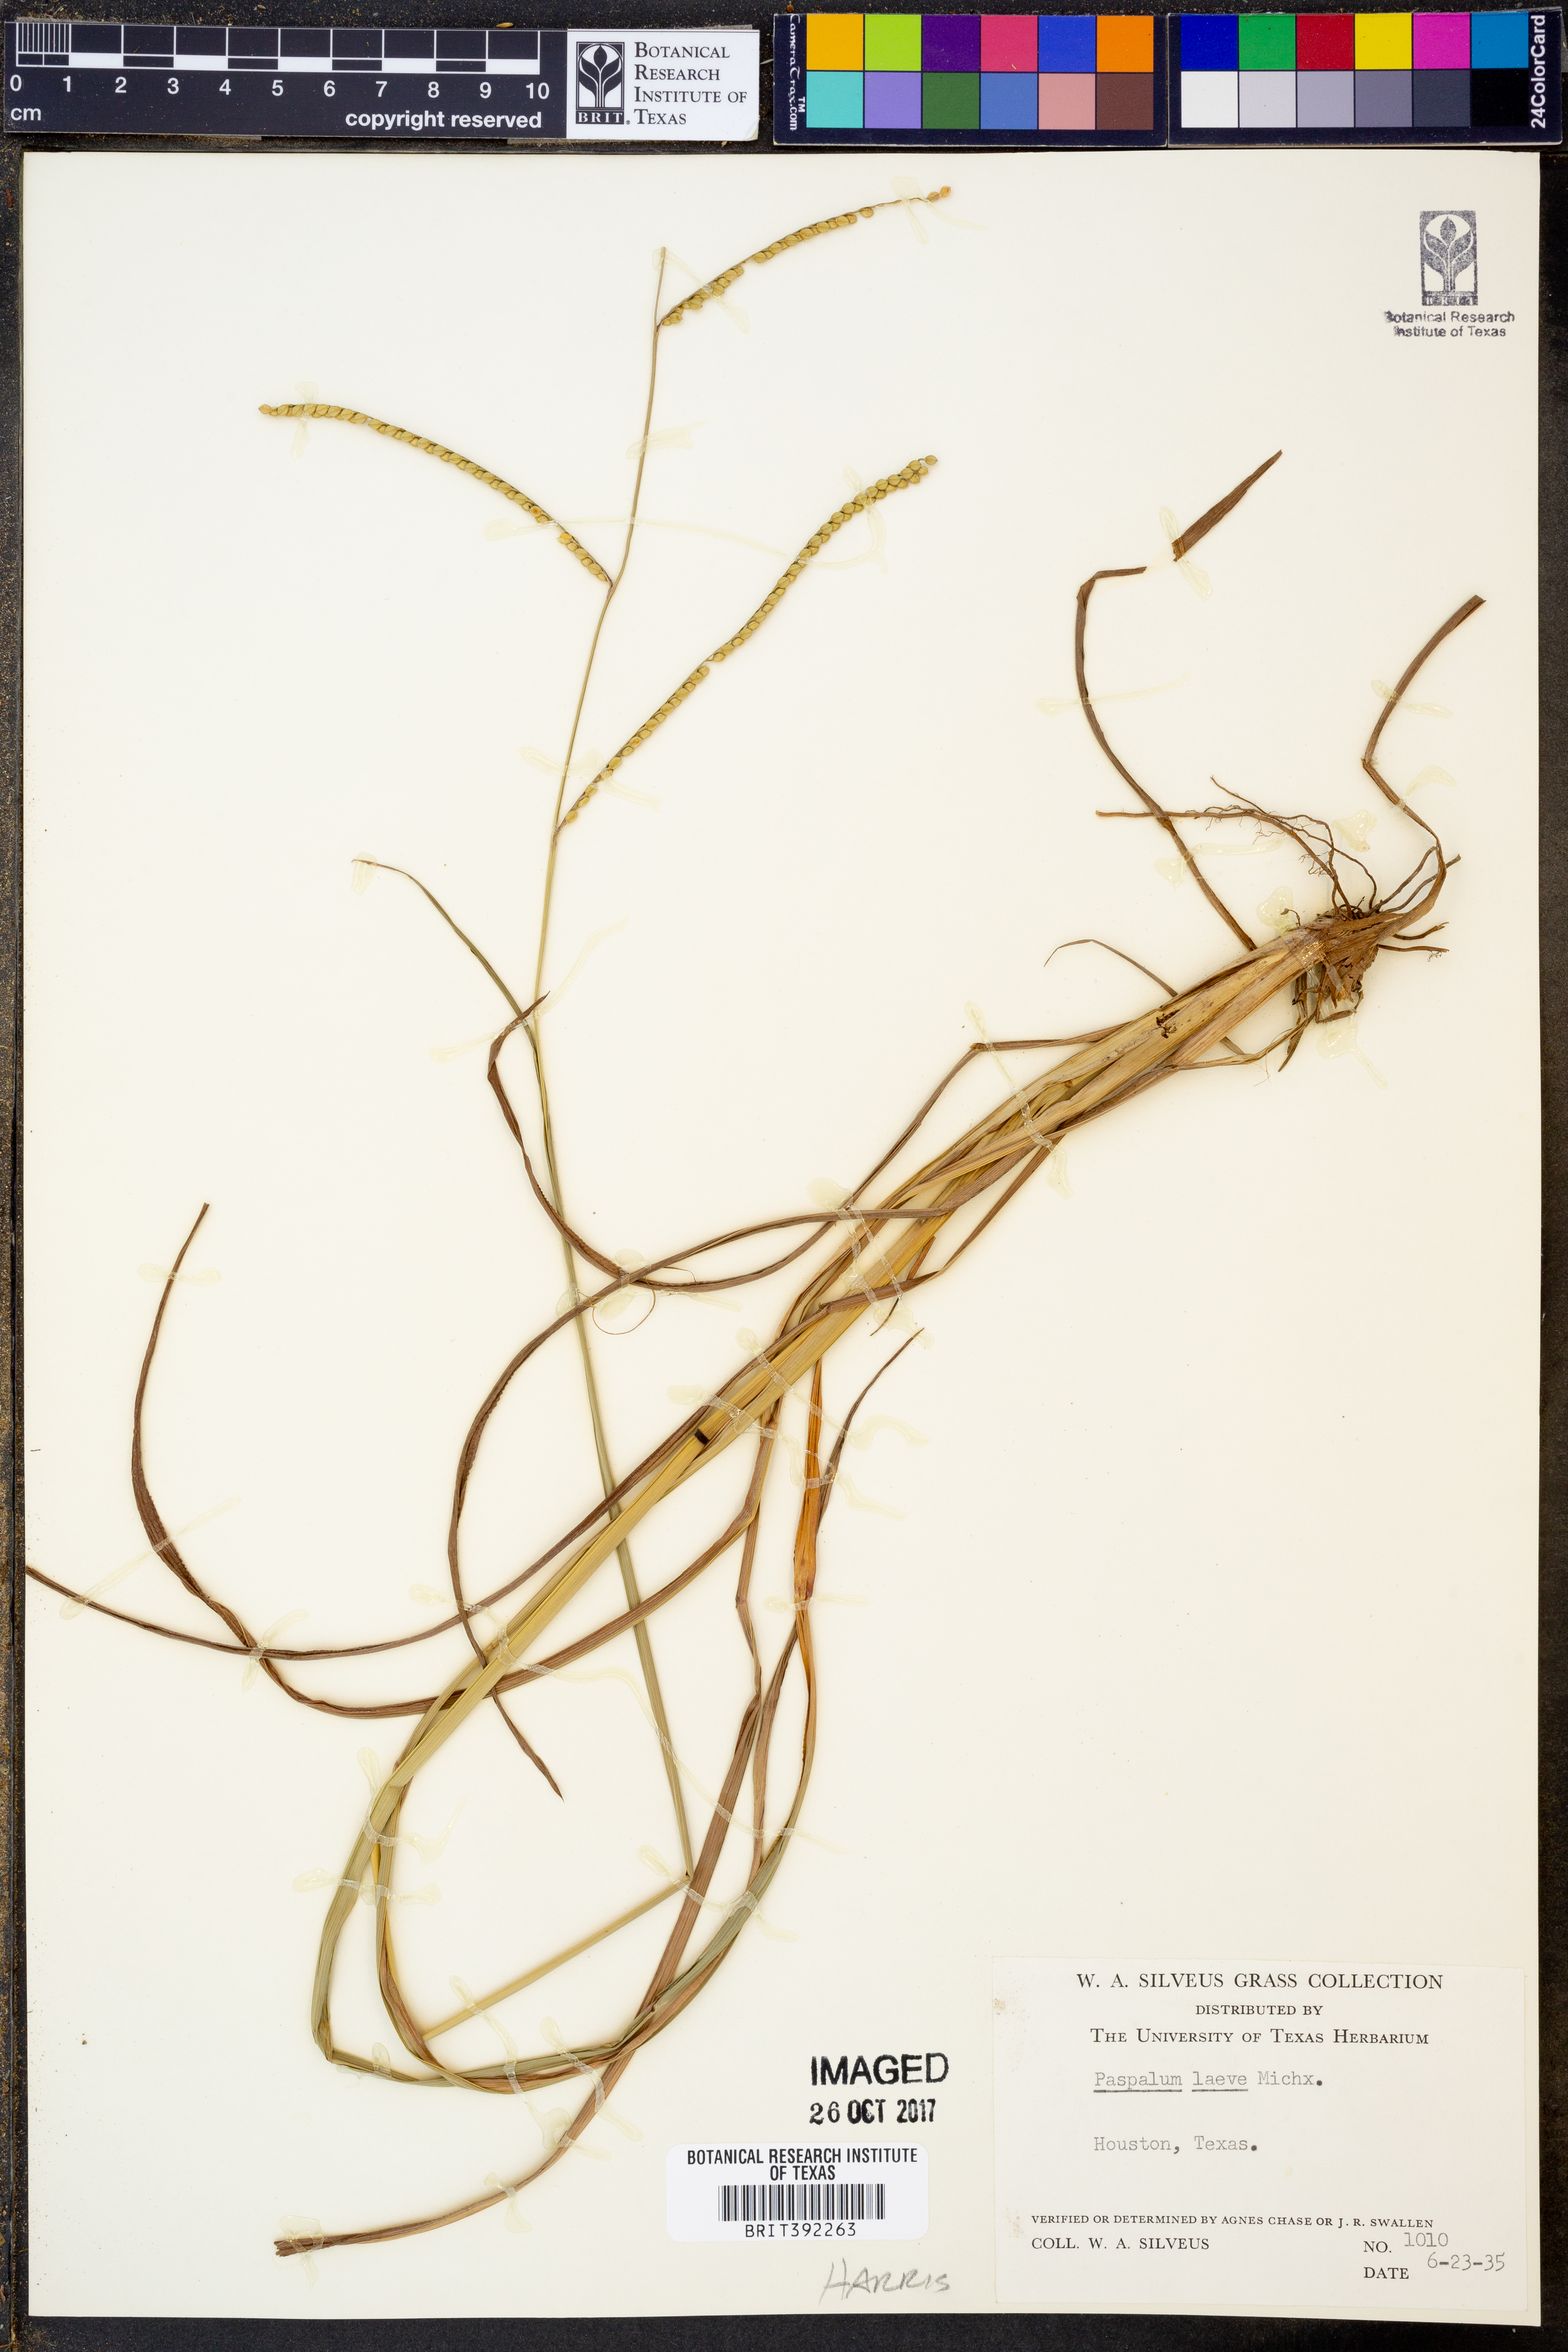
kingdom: Plantae
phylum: Tracheophyta
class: Liliopsida
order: Poales
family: Poaceae
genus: Paspalum
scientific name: Paspalum laeve
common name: Field paspalum
